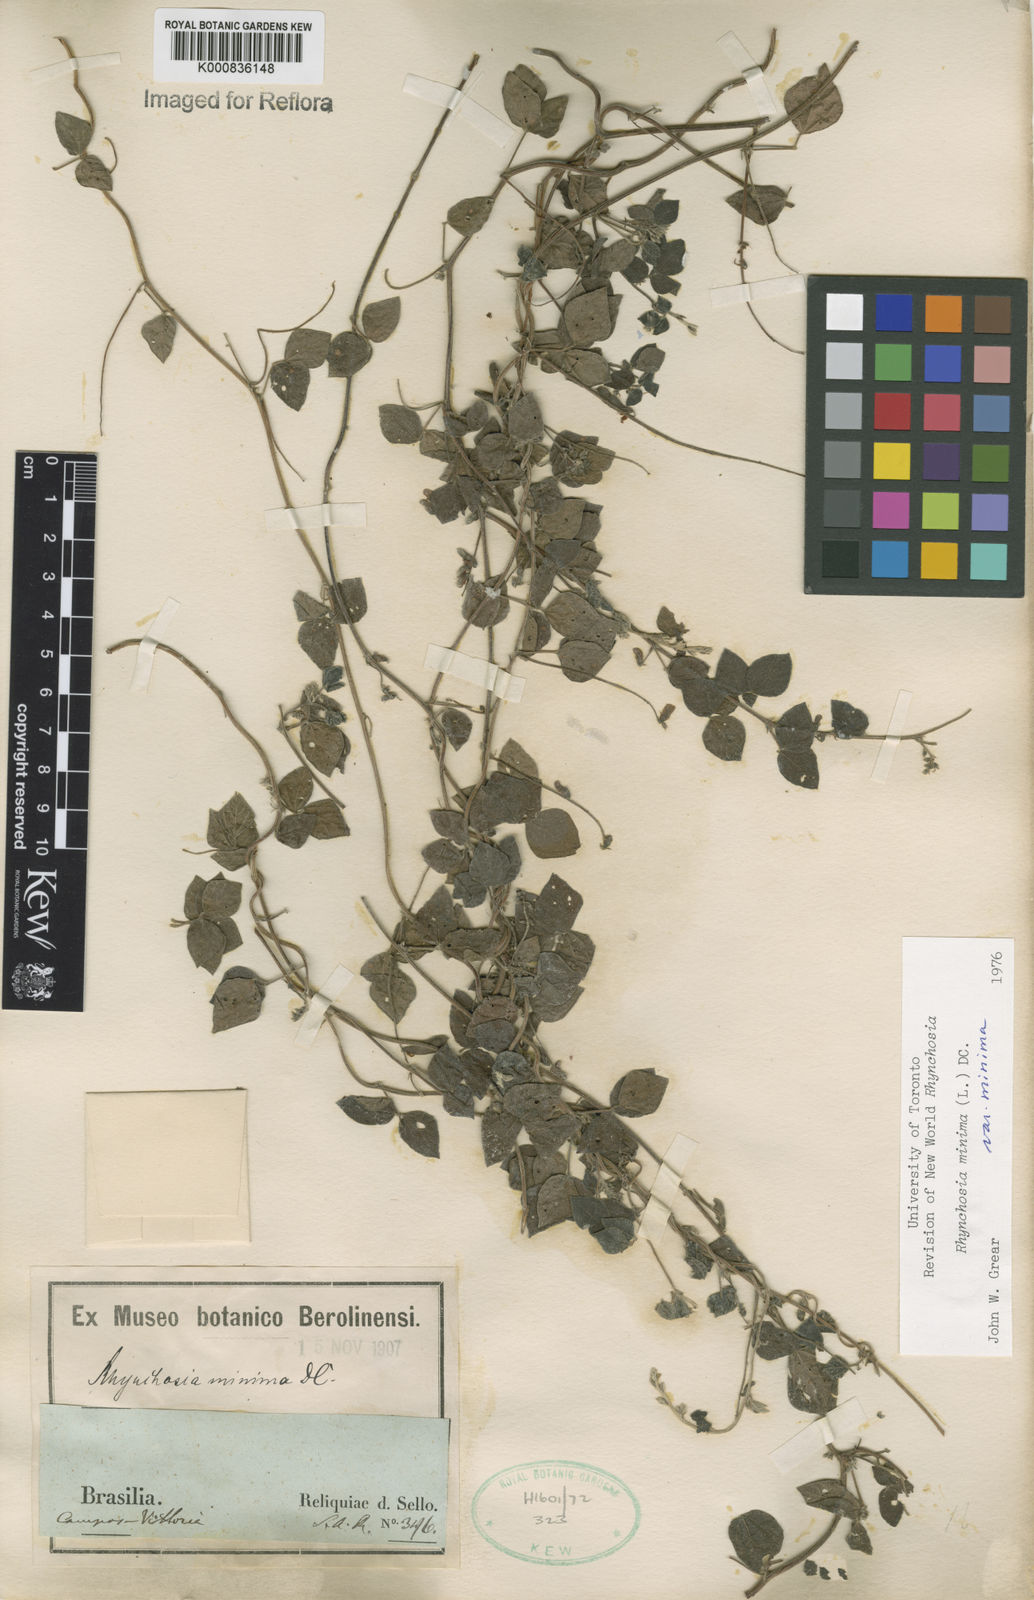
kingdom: Plantae
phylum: Tracheophyta
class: Magnoliopsida
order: Fabales
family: Fabaceae
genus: Rhynchosia
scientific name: Rhynchosia minima
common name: Least snoutbean
